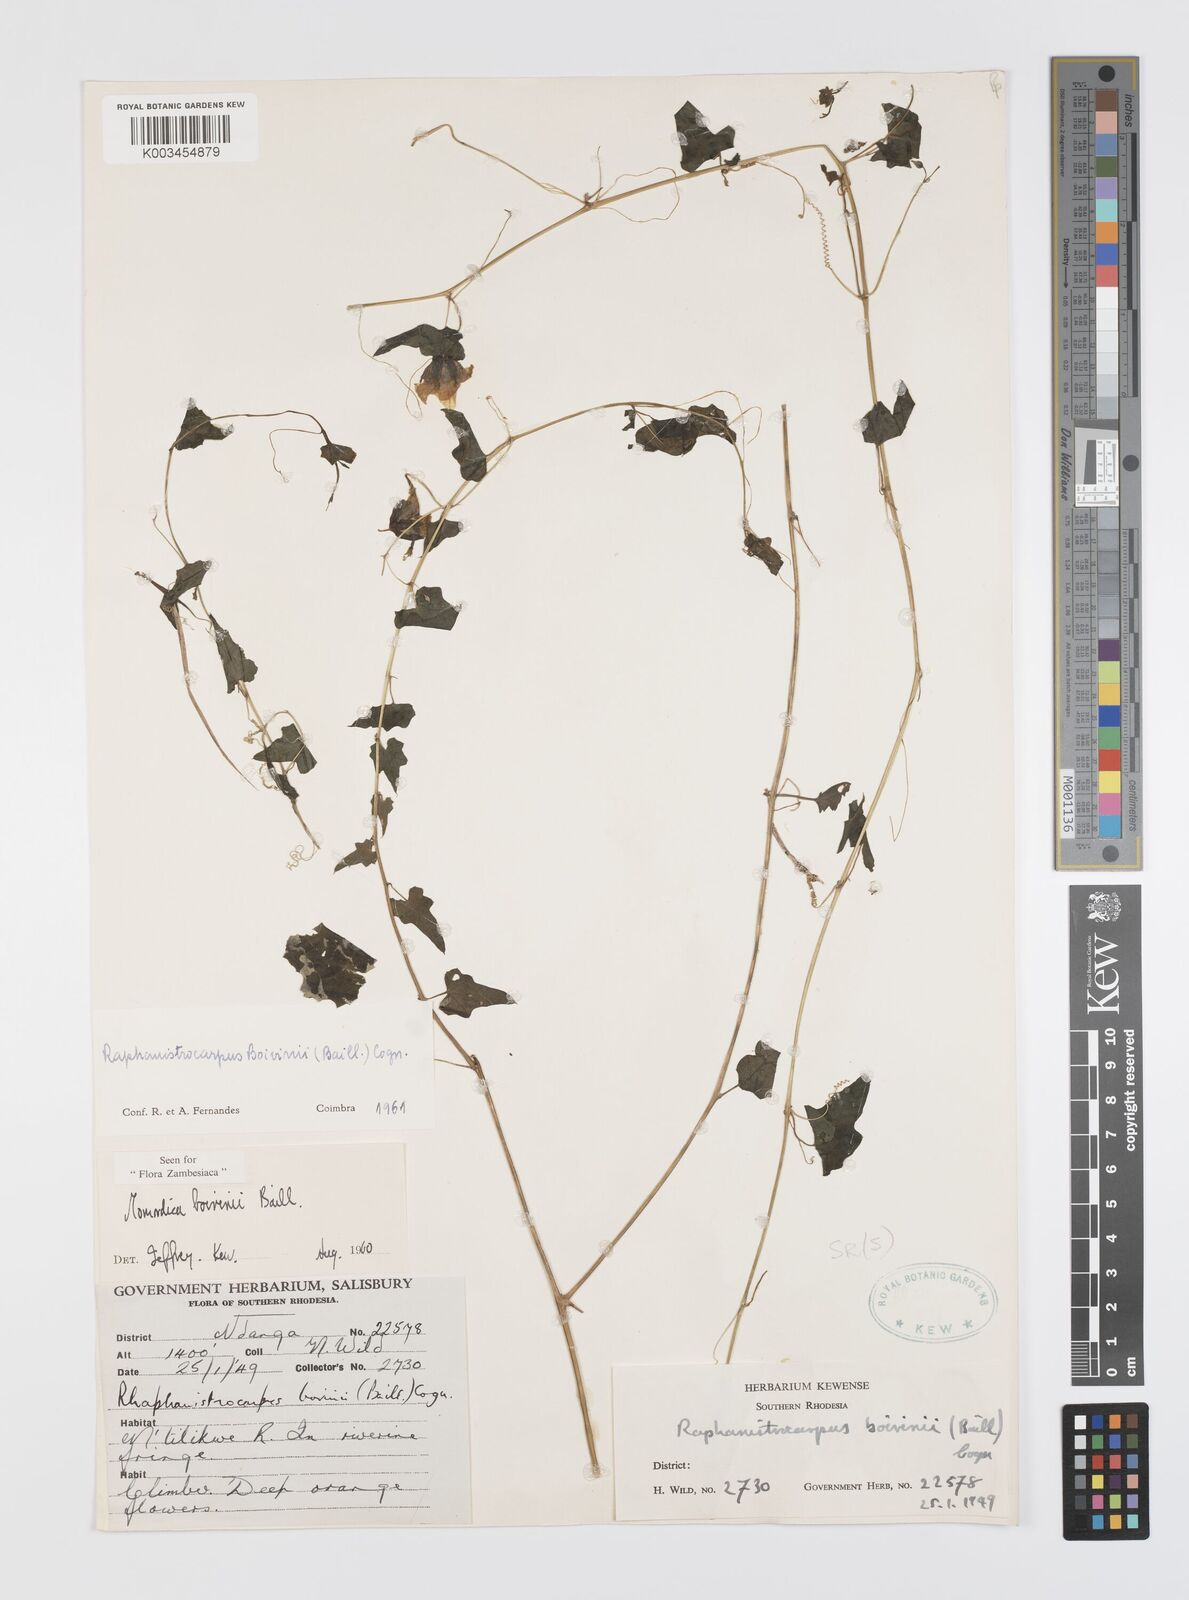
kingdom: Plantae
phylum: Tracheophyta
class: Magnoliopsida
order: Cucurbitales
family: Cucurbitaceae
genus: Momordica
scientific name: Momordica boivinii
